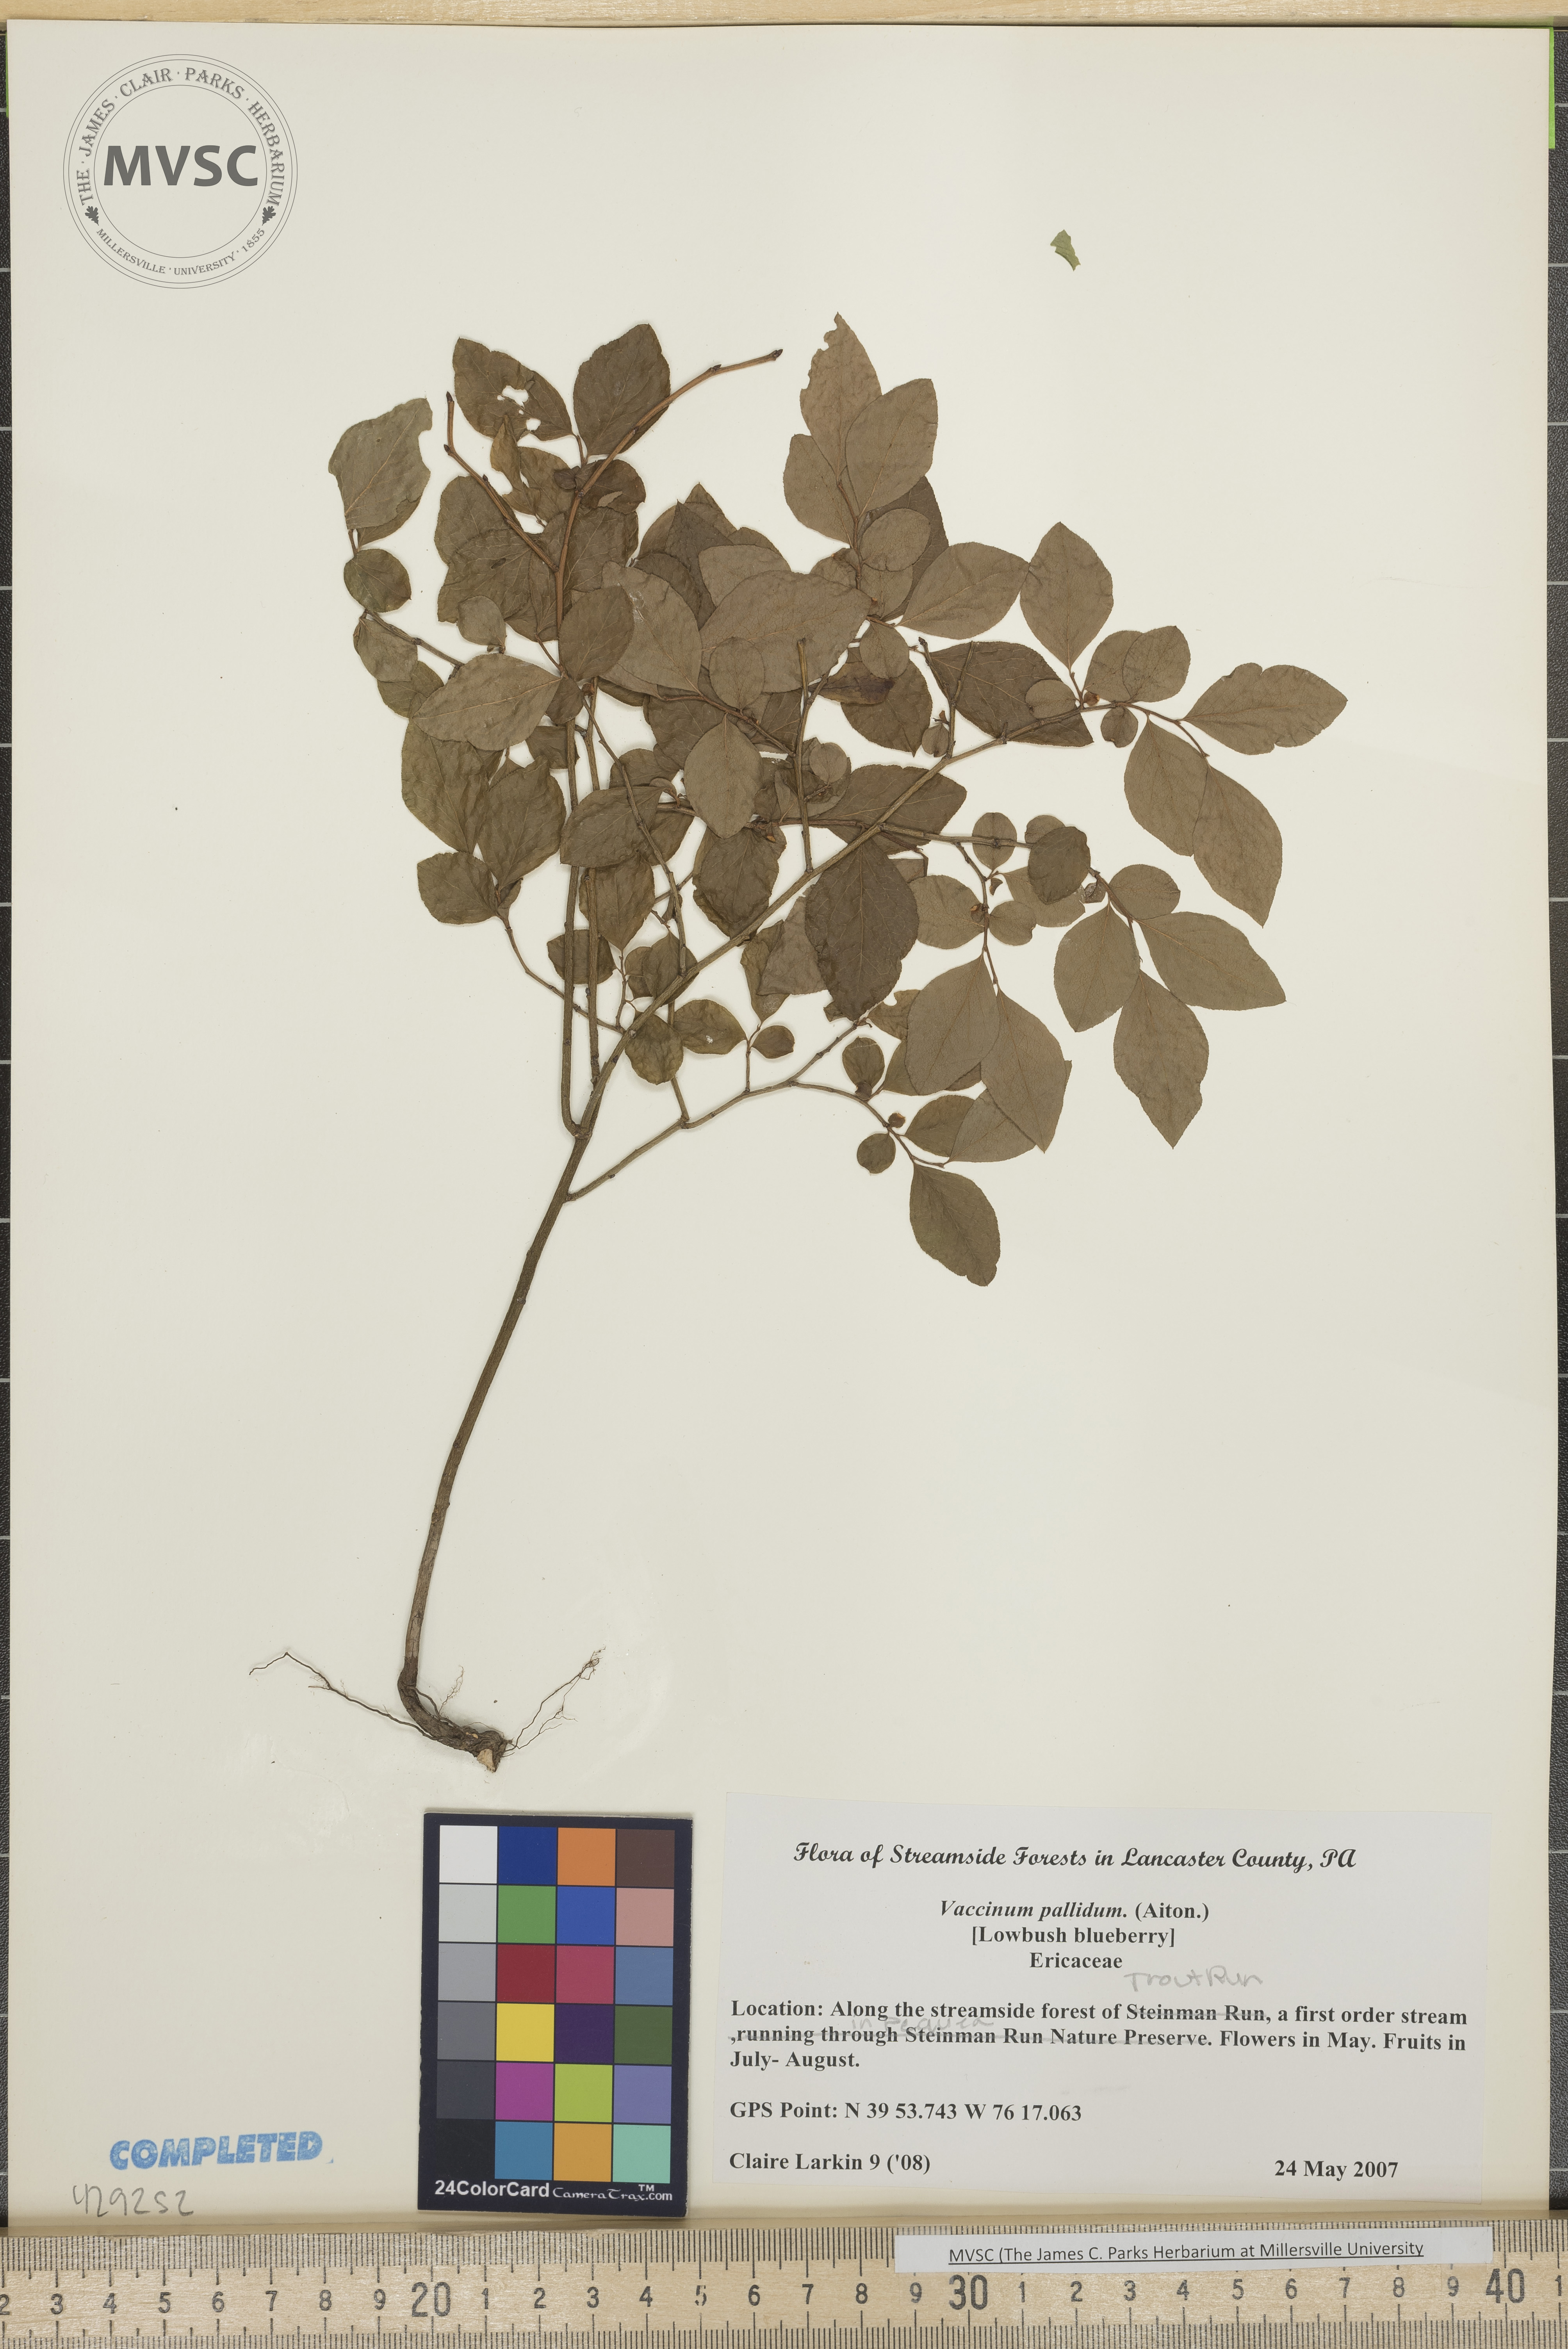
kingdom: Plantae
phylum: Tracheophyta
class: Magnoliopsida
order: Ericales
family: Ericaceae
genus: Vaccinium
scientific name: Vaccinium pallidum
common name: Lowbush blueberry
